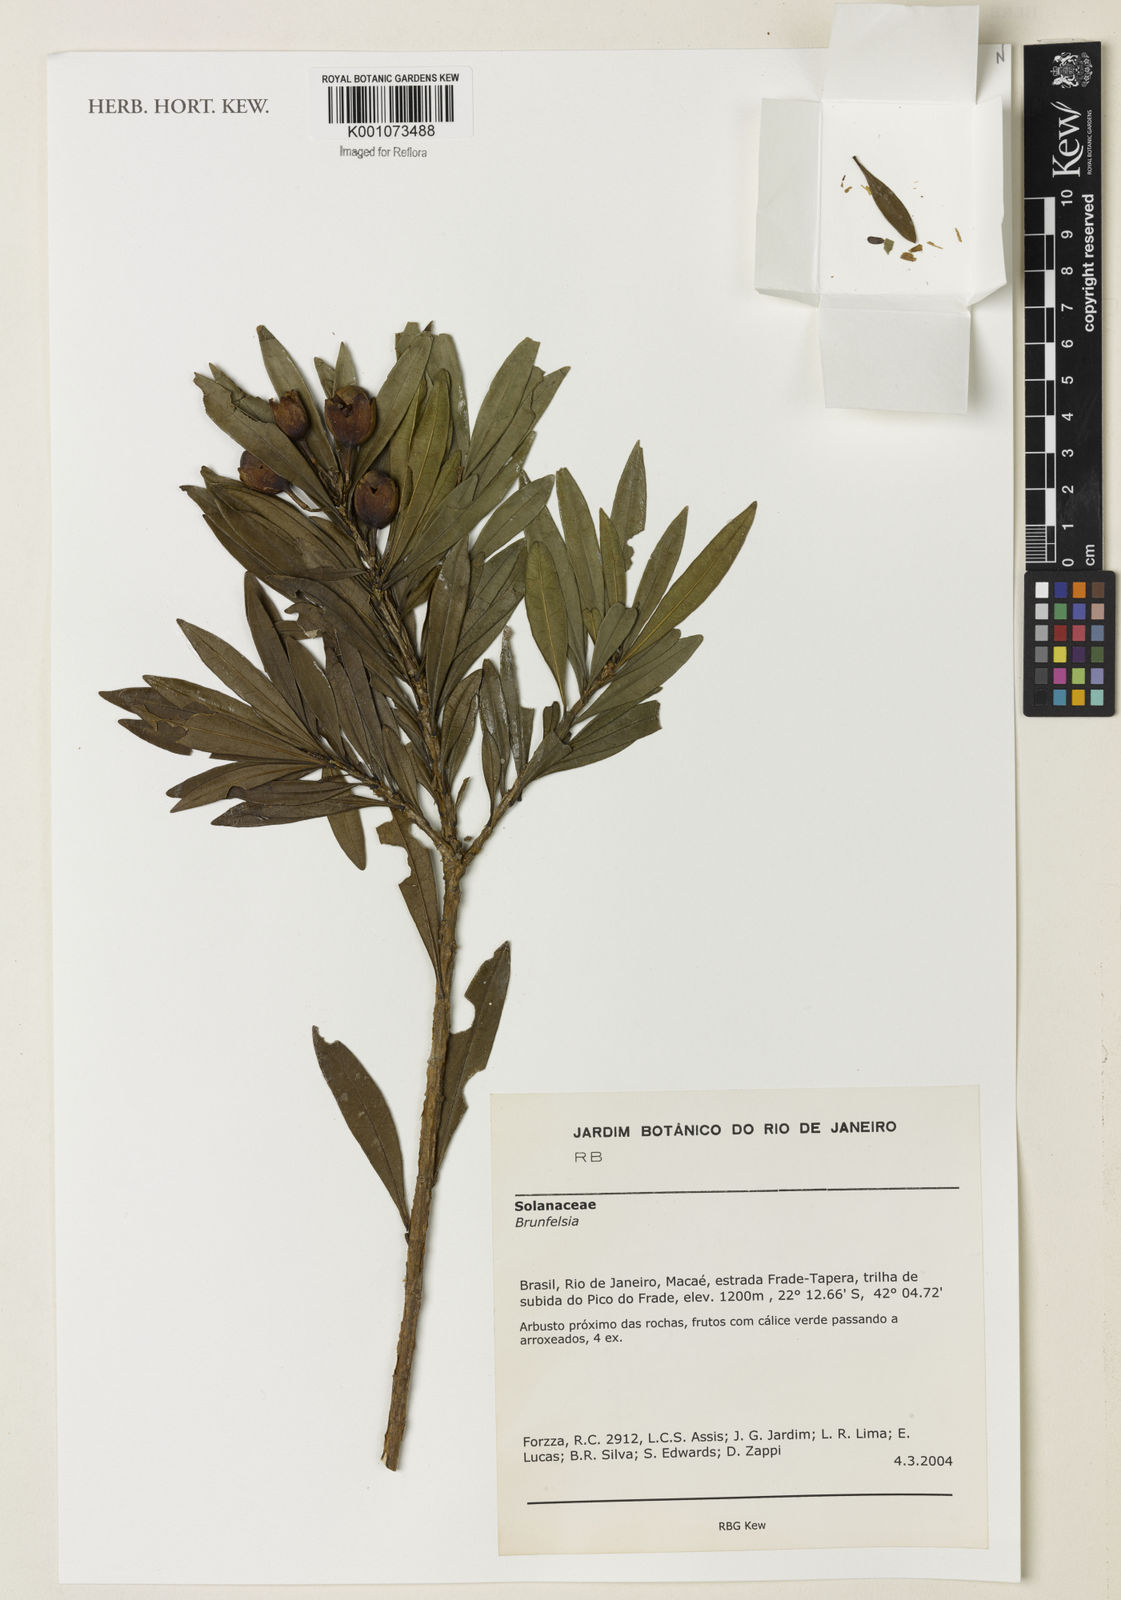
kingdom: Plantae
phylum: Tracheophyta
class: Magnoliopsida
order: Solanales
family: Solanaceae
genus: Brunfelsia
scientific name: Brunfelsia
